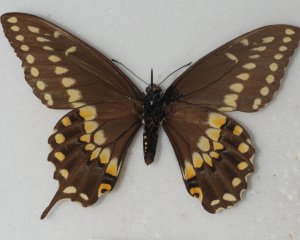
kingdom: Animalia
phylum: Arthropoda
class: Insecta
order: Lepidoptera
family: Papilionidae
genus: Papilio
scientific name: Papilio polyxenes
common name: Black Swallowtail
